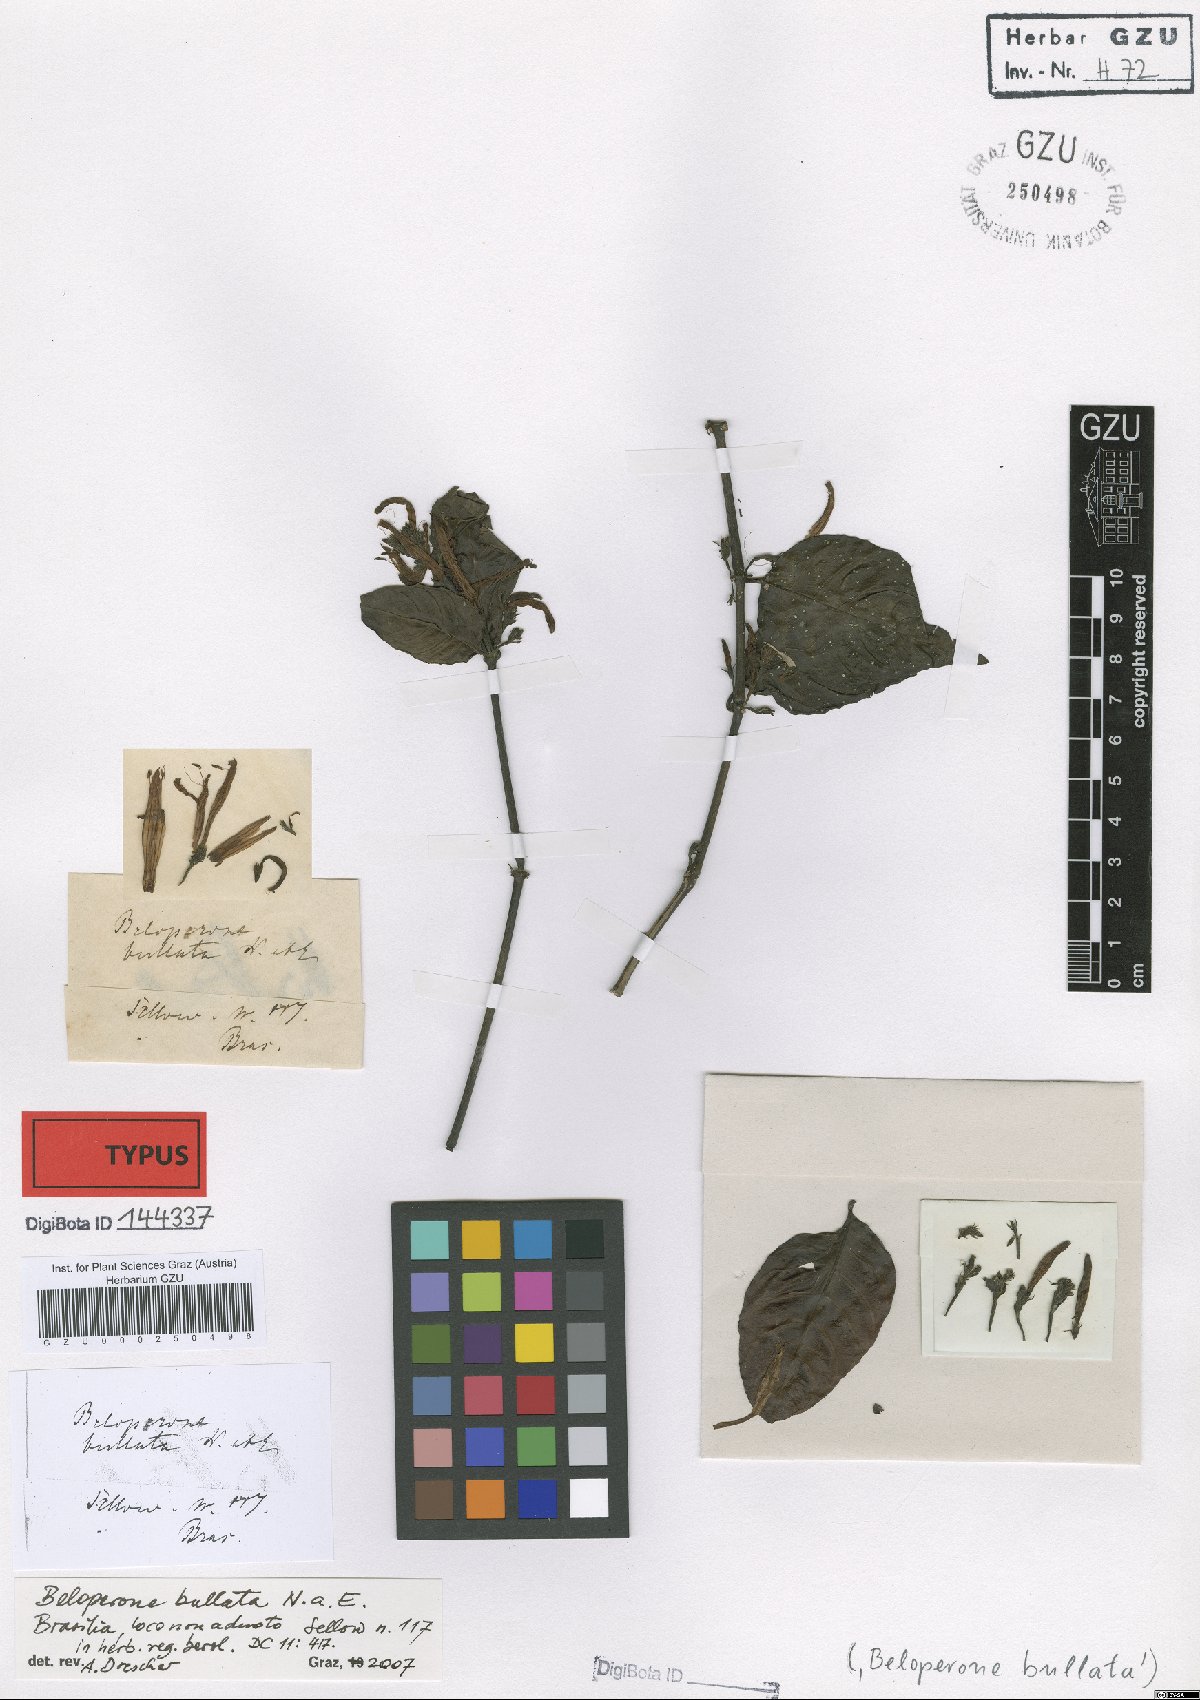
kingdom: Plantae
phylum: Tracheophyta
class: Magnoliopsida
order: Lamiales
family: Acanthaceae
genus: Justicia
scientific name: Justicia bullata
